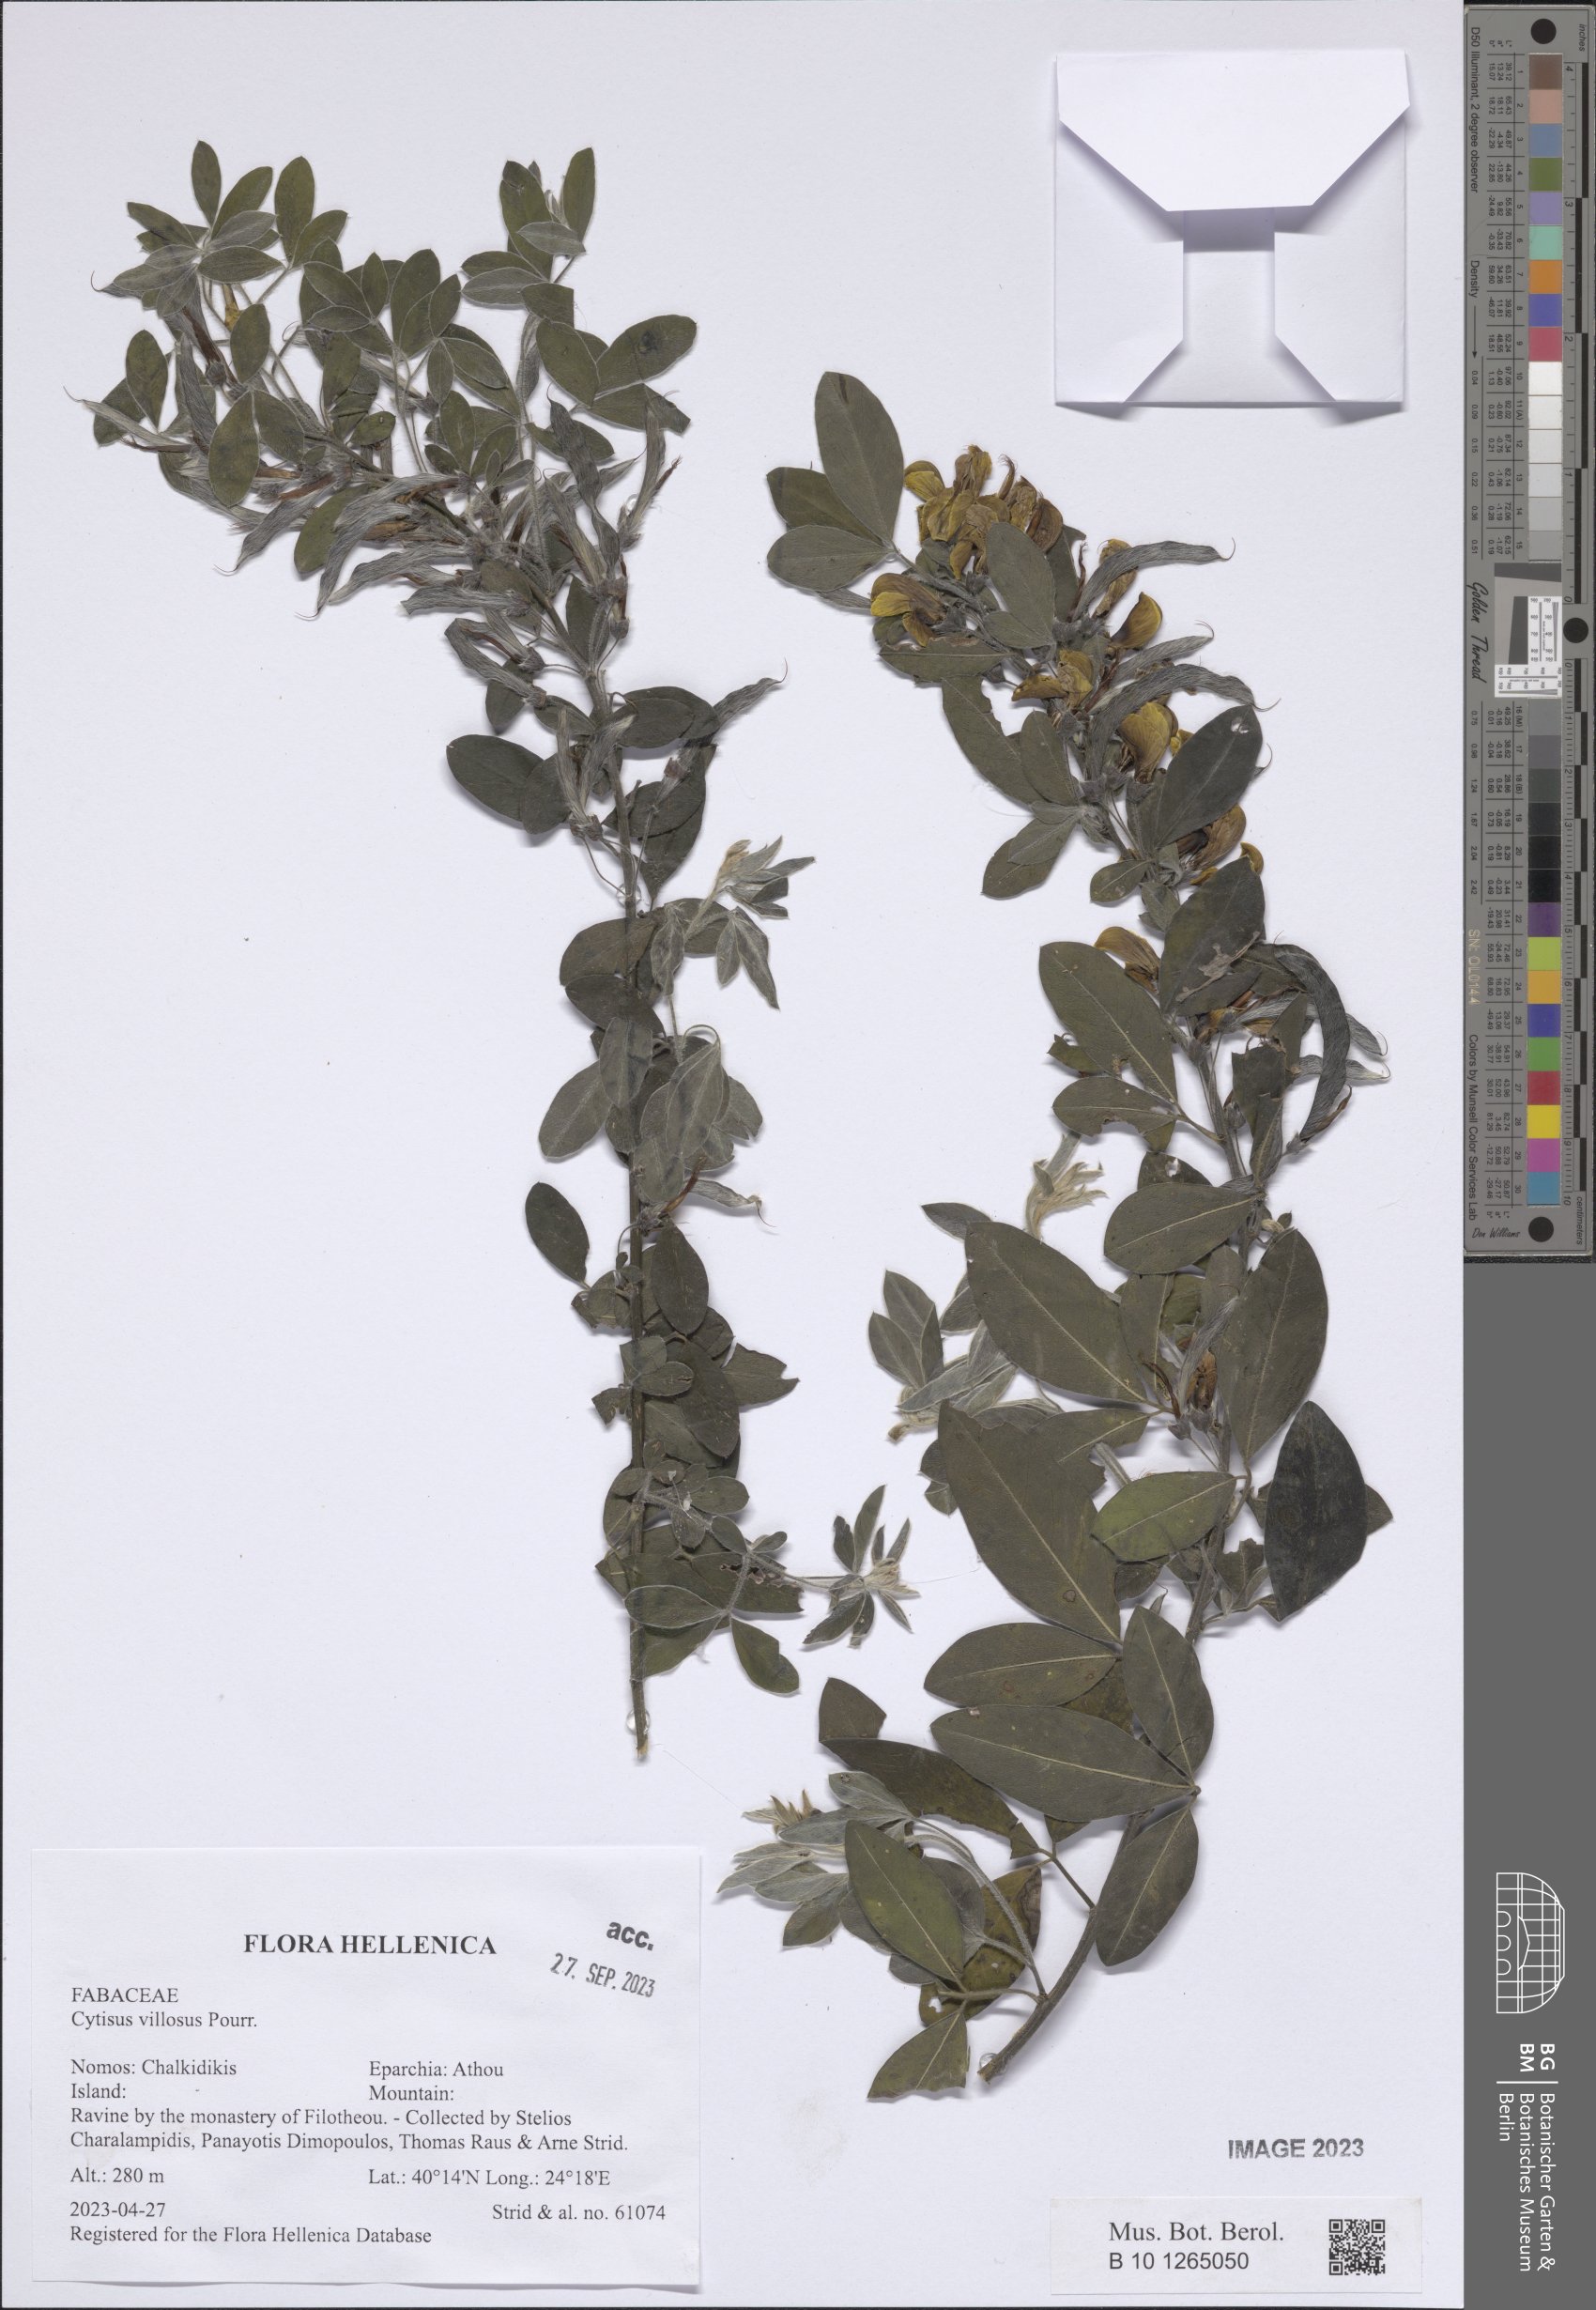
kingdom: Plantae
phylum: Tracheophyta
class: Magnoliopsida
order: Fabales
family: Fabaceae
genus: Cytisus
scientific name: Cytisus villosus
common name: Hairybroom
